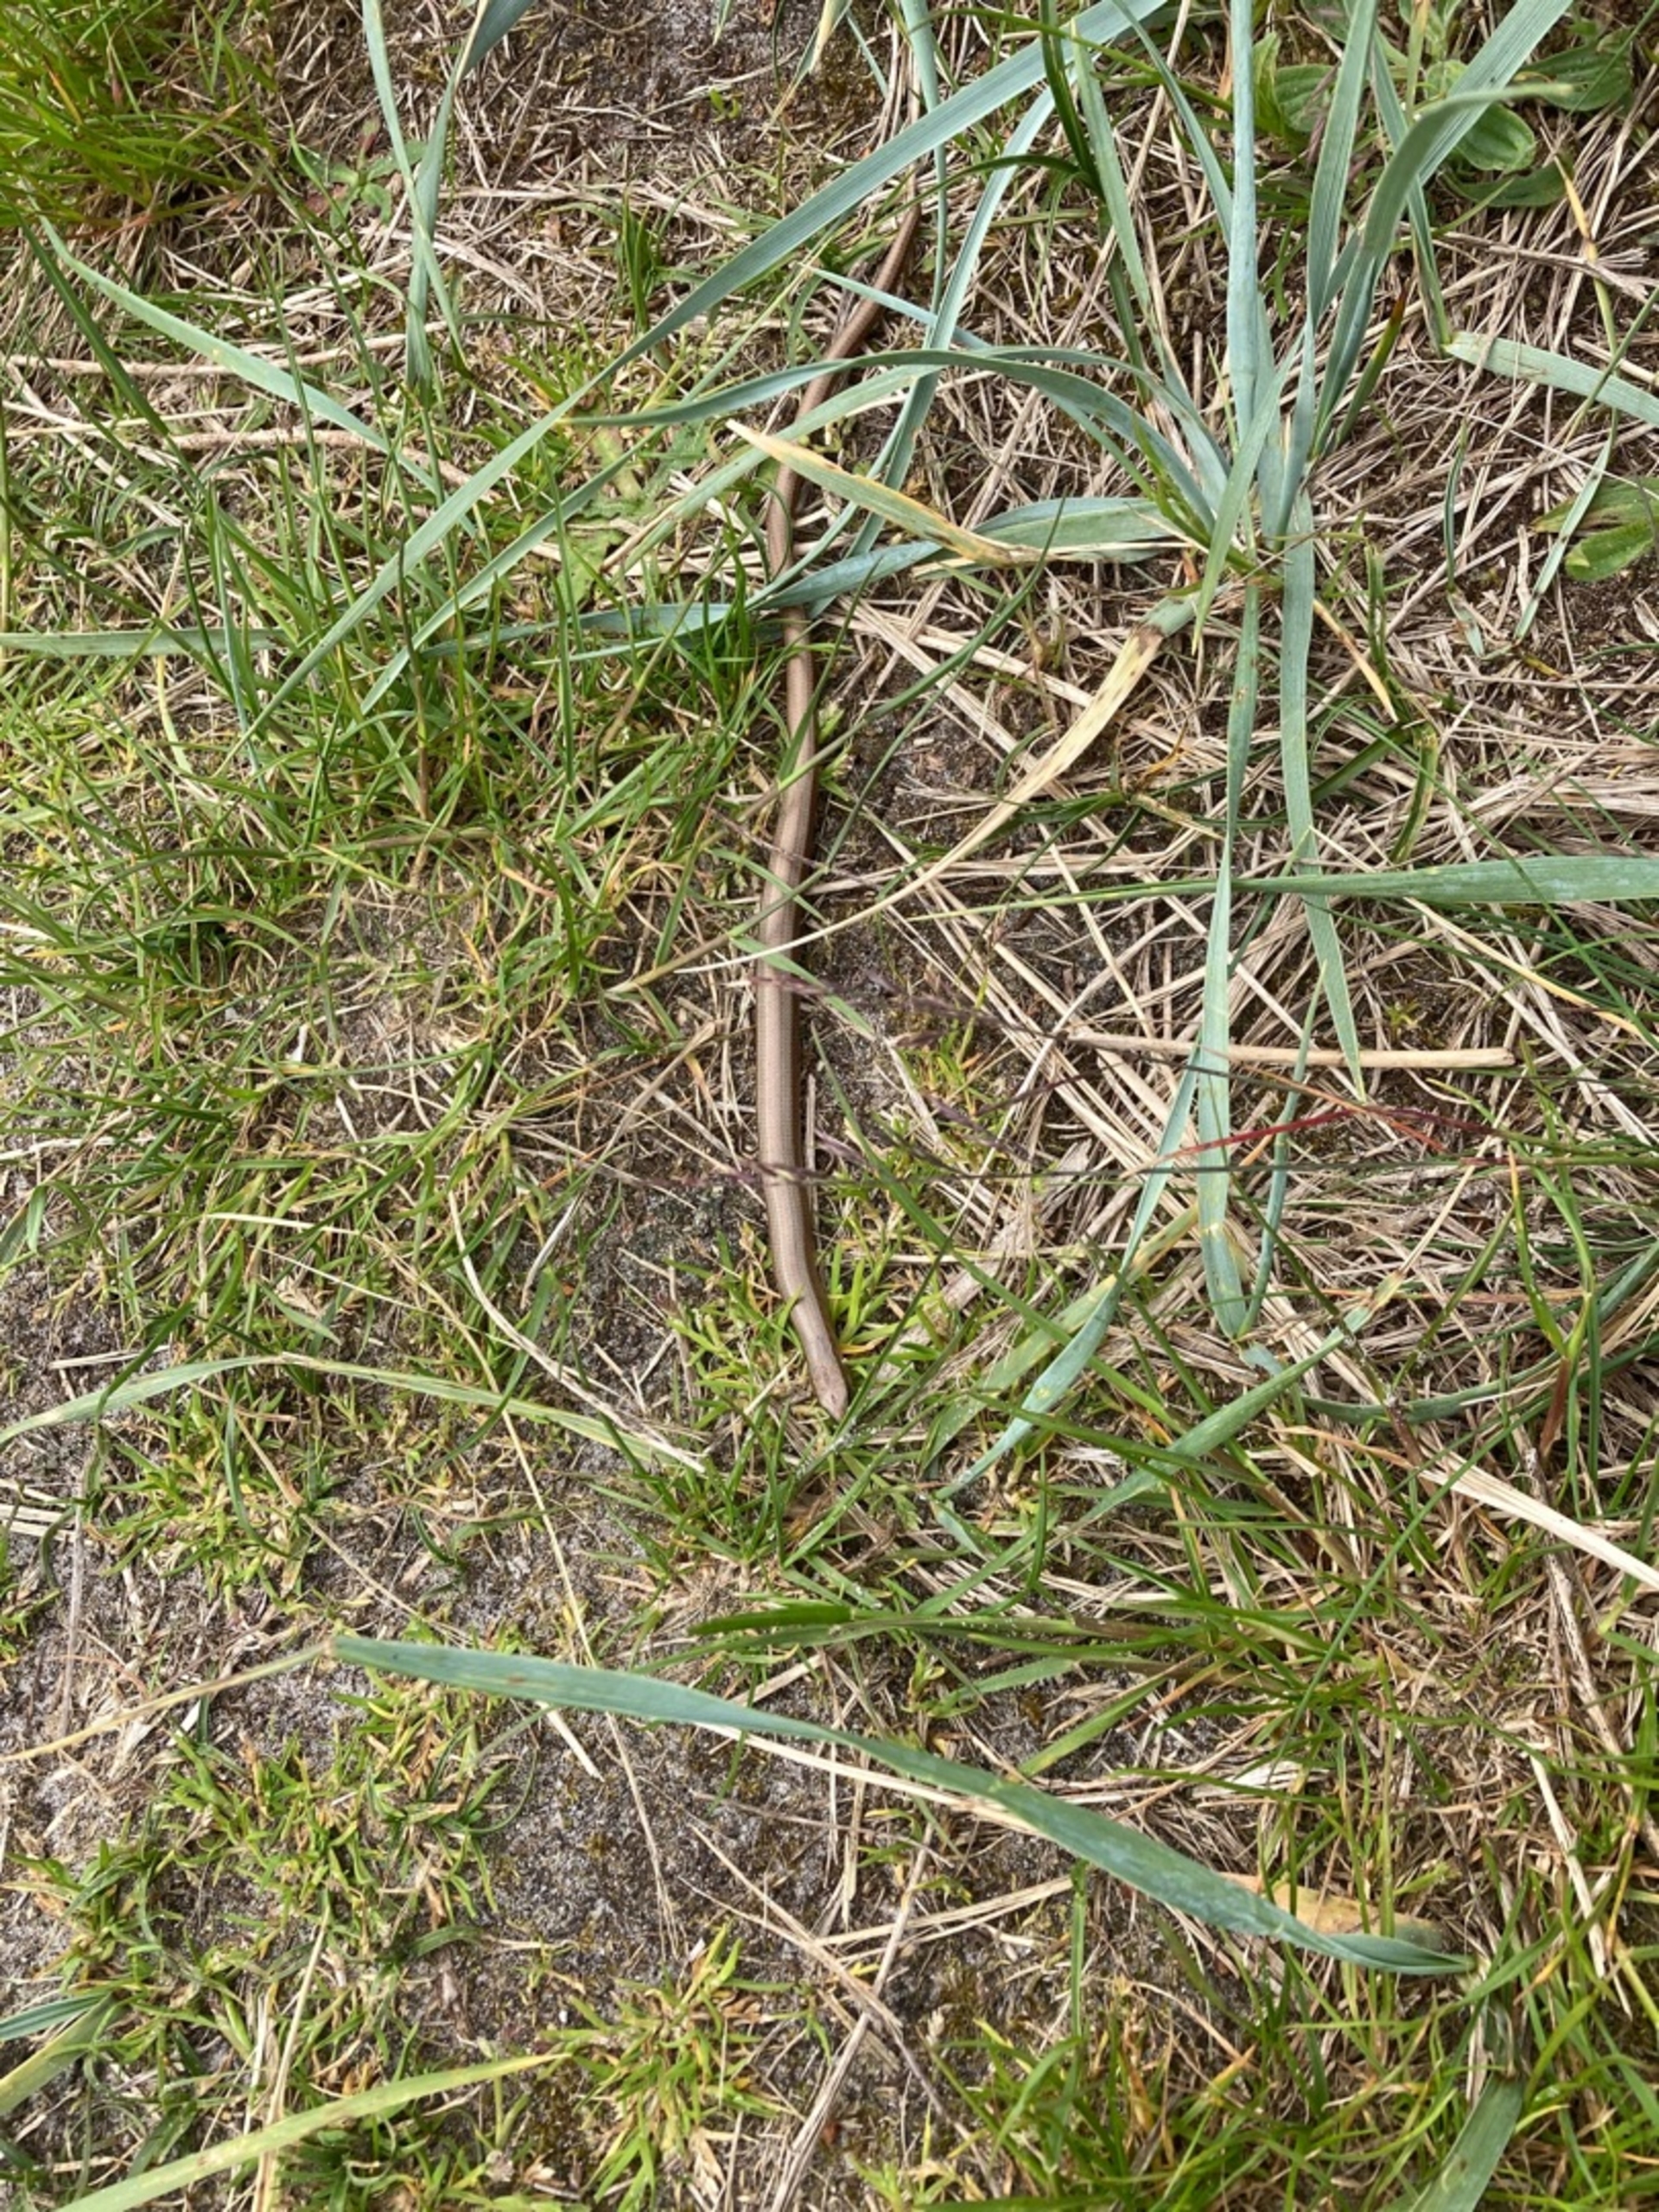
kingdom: Animalia
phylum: Chordata
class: Squamata
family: Anguidae
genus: Anguis
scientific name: Anguis fragilis
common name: Stålorm
